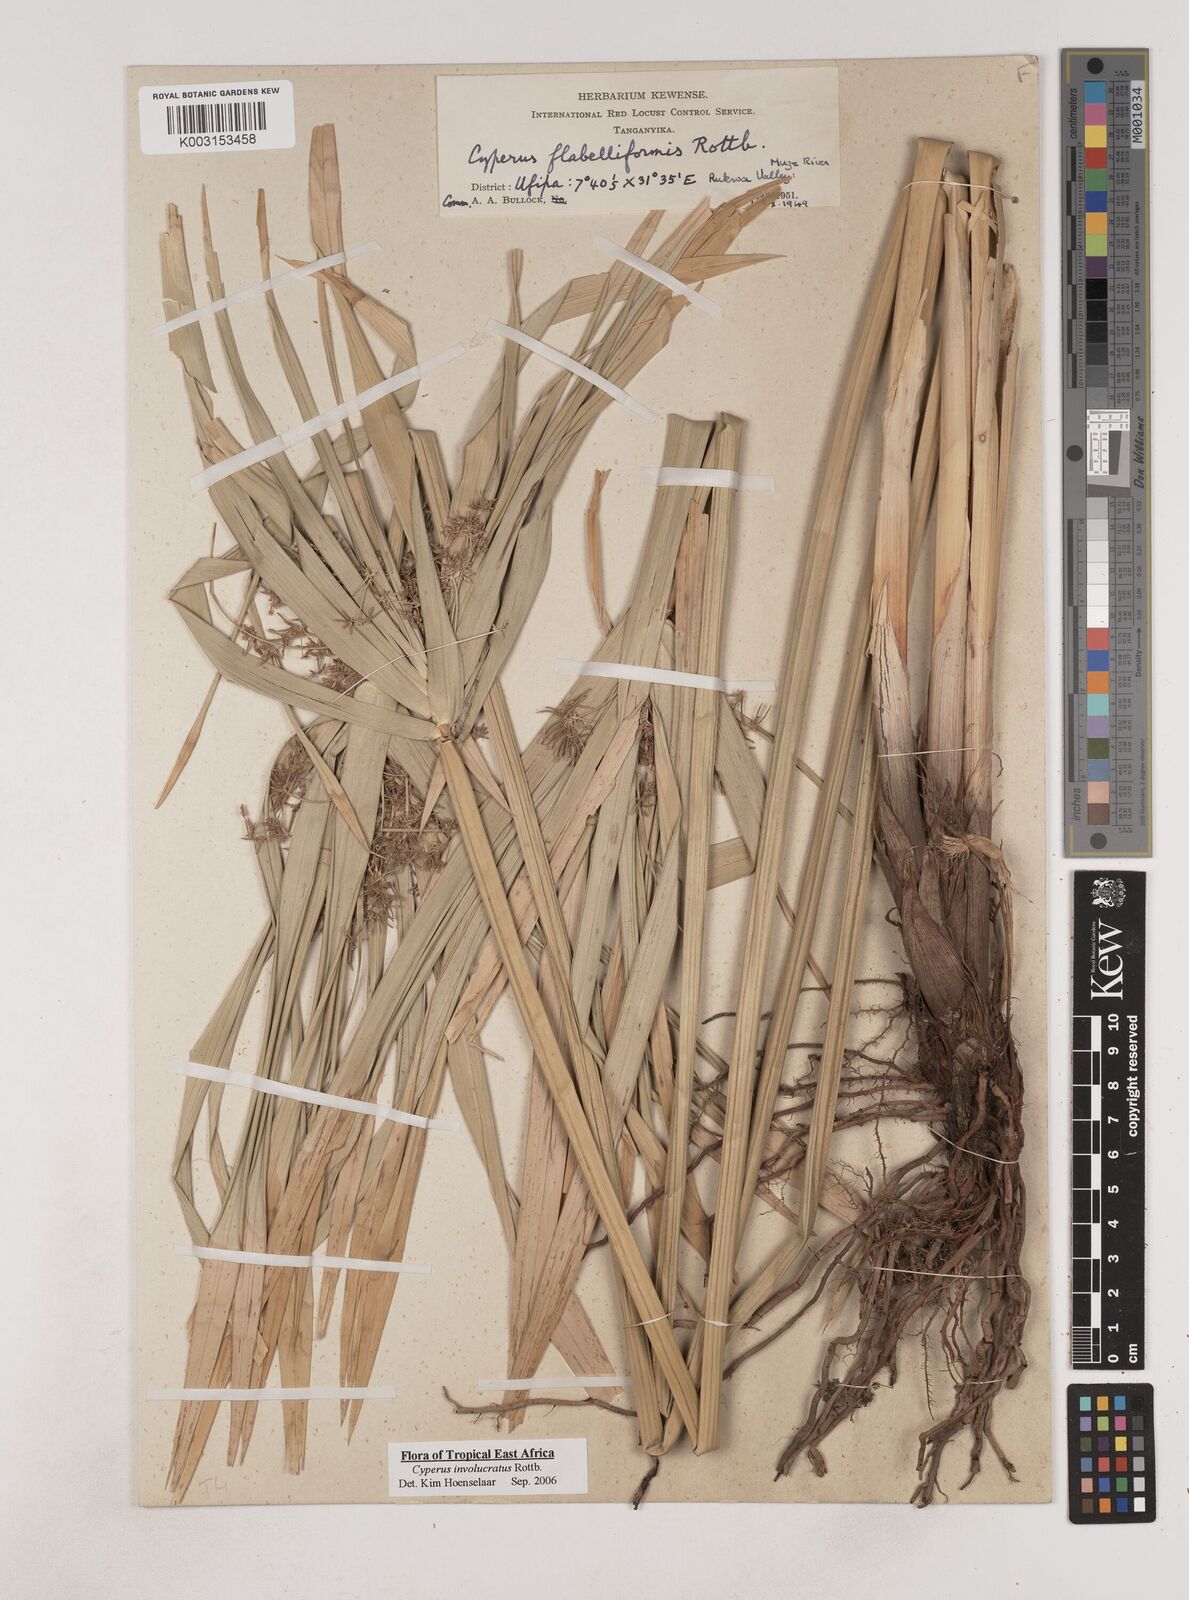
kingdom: Plantae
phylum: Tracheophyta
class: Liliopsida
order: Poales
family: Cyperaceae
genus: Cyperus
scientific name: Cyperus alternifolius
